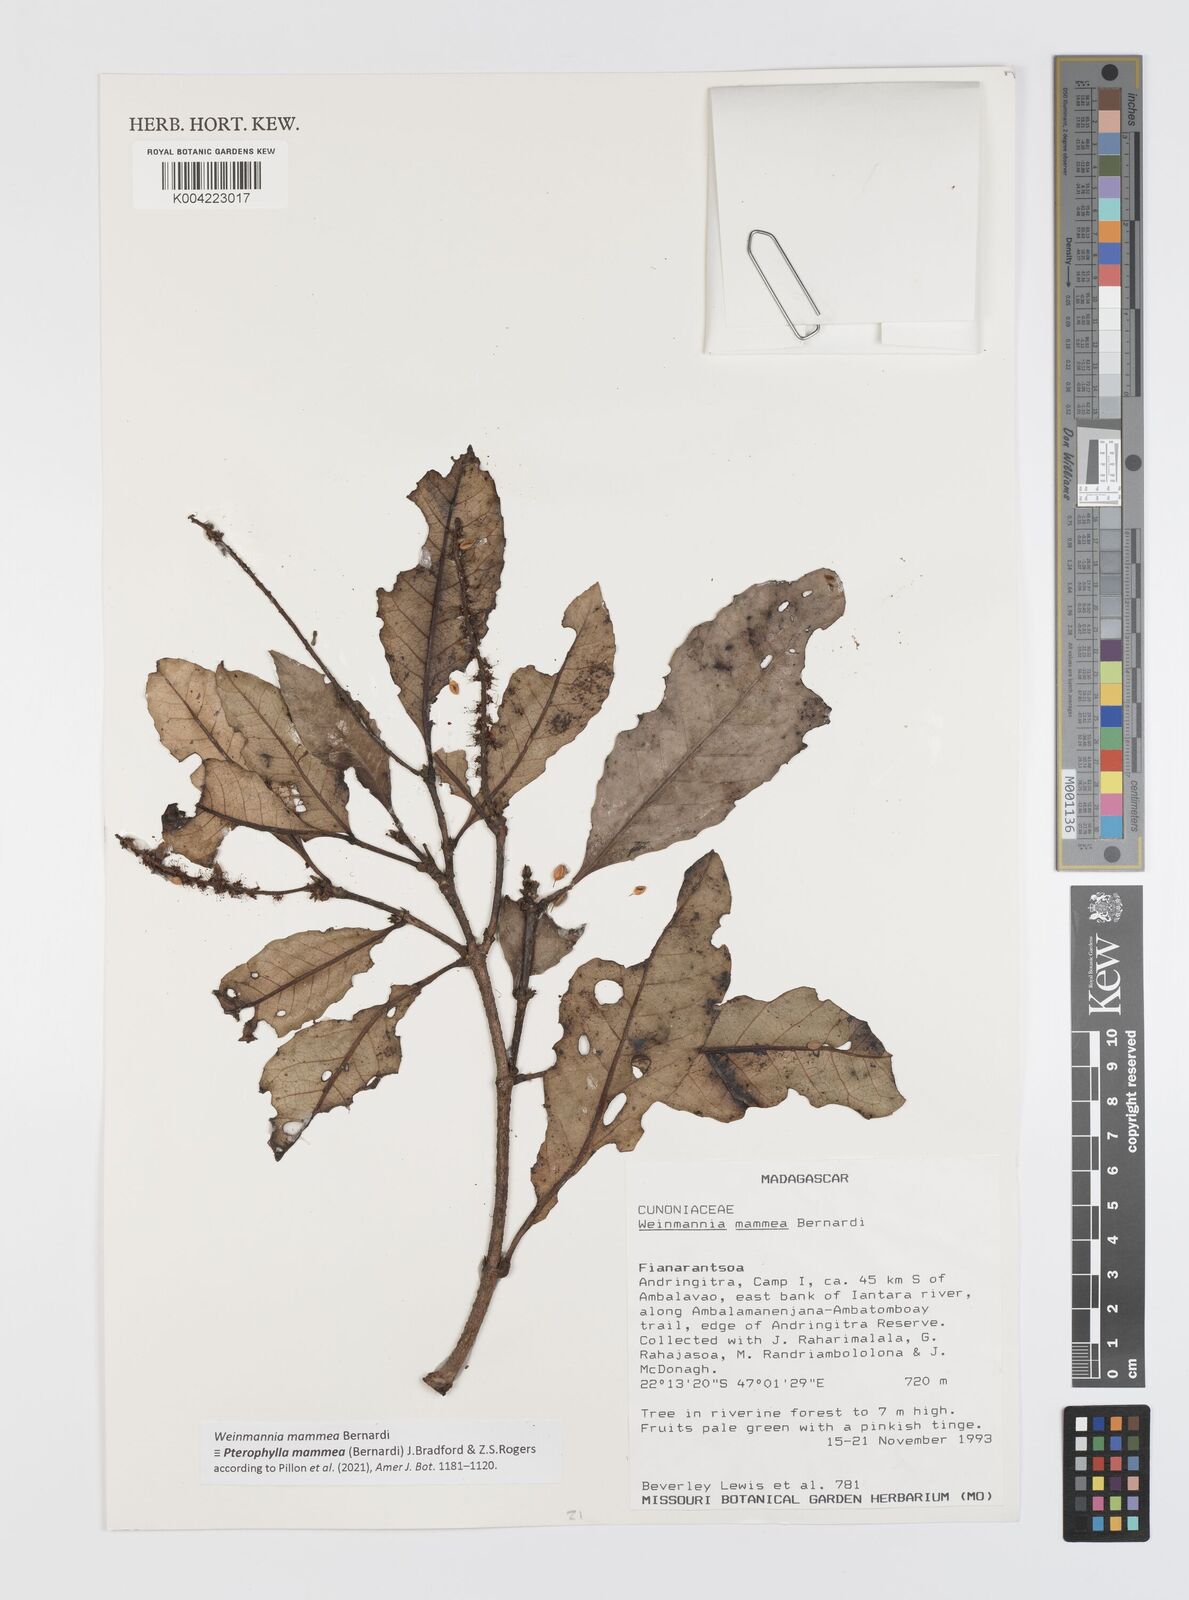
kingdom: Plantae
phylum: Tracheophyta
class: Magnoliopsida
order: Oxalidales
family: Cunoniaceae
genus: Pterophylla
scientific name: Pterophylla mammea
